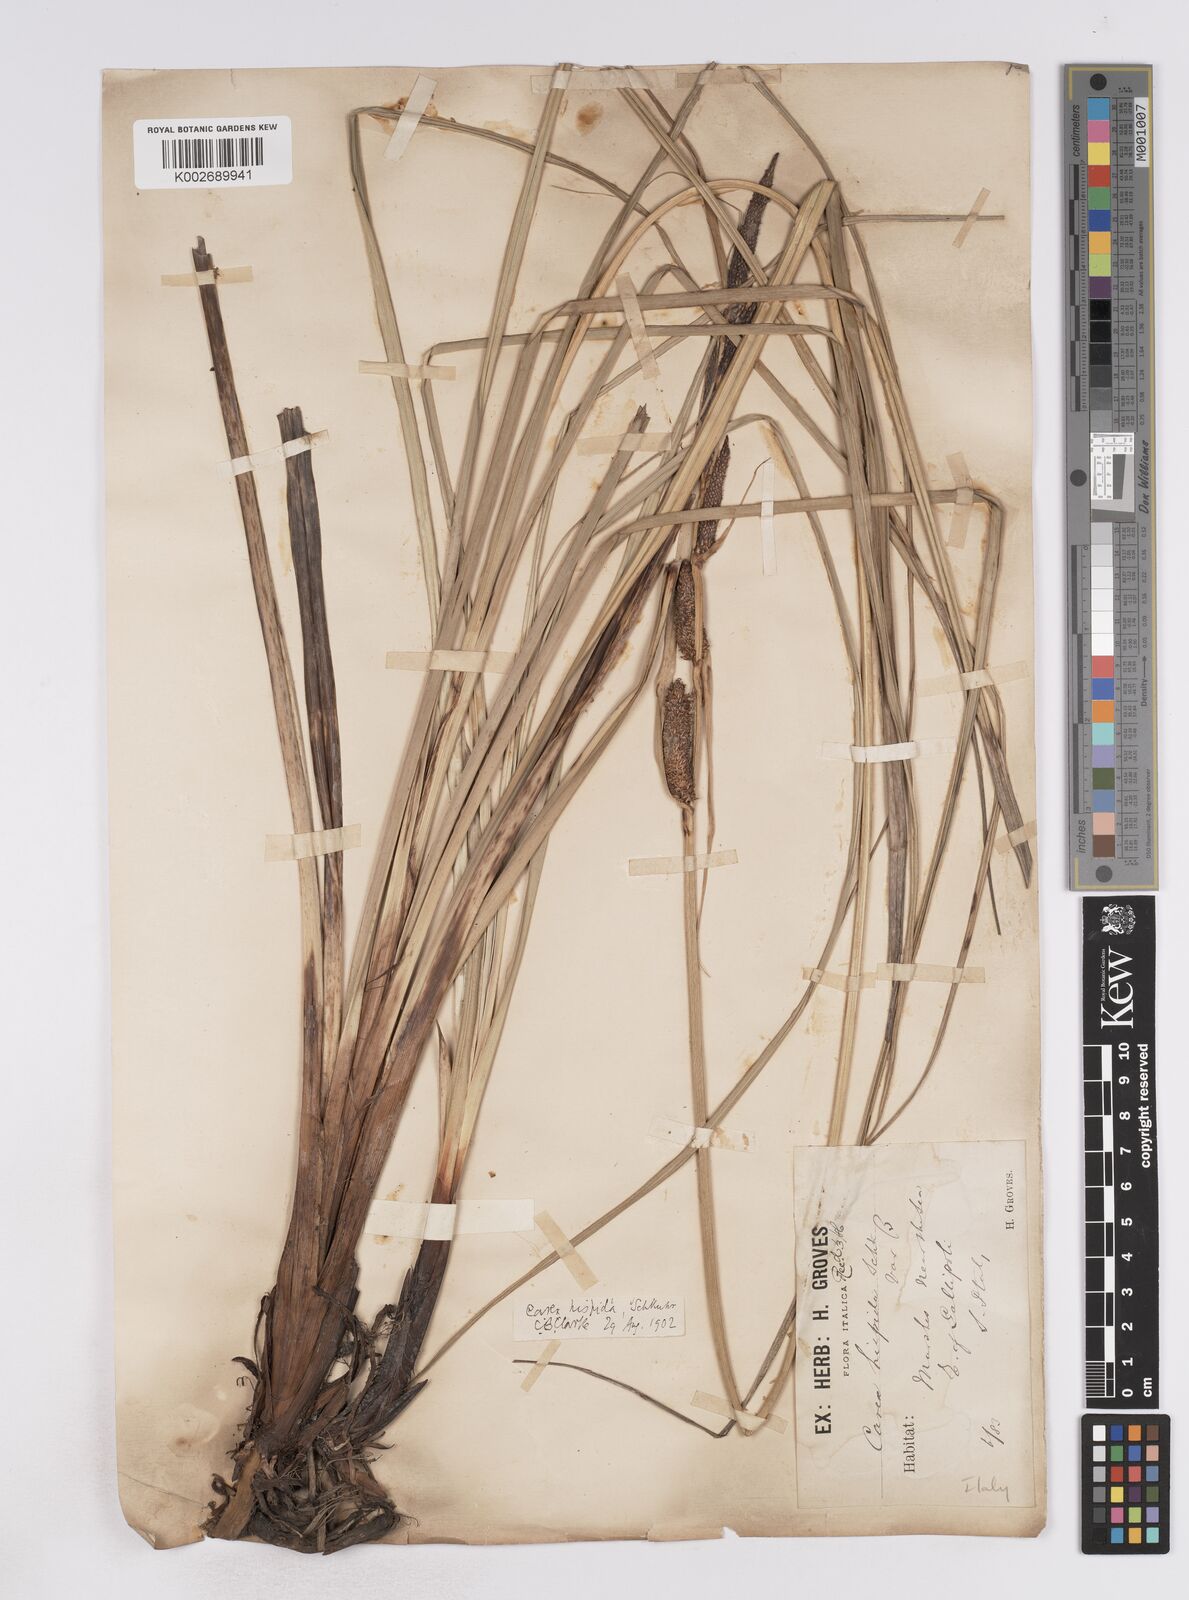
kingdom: Plantae
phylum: Tracheophyta
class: Liliopsida
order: Poales
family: Cyperaceae
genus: Carex
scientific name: Carex hispida
